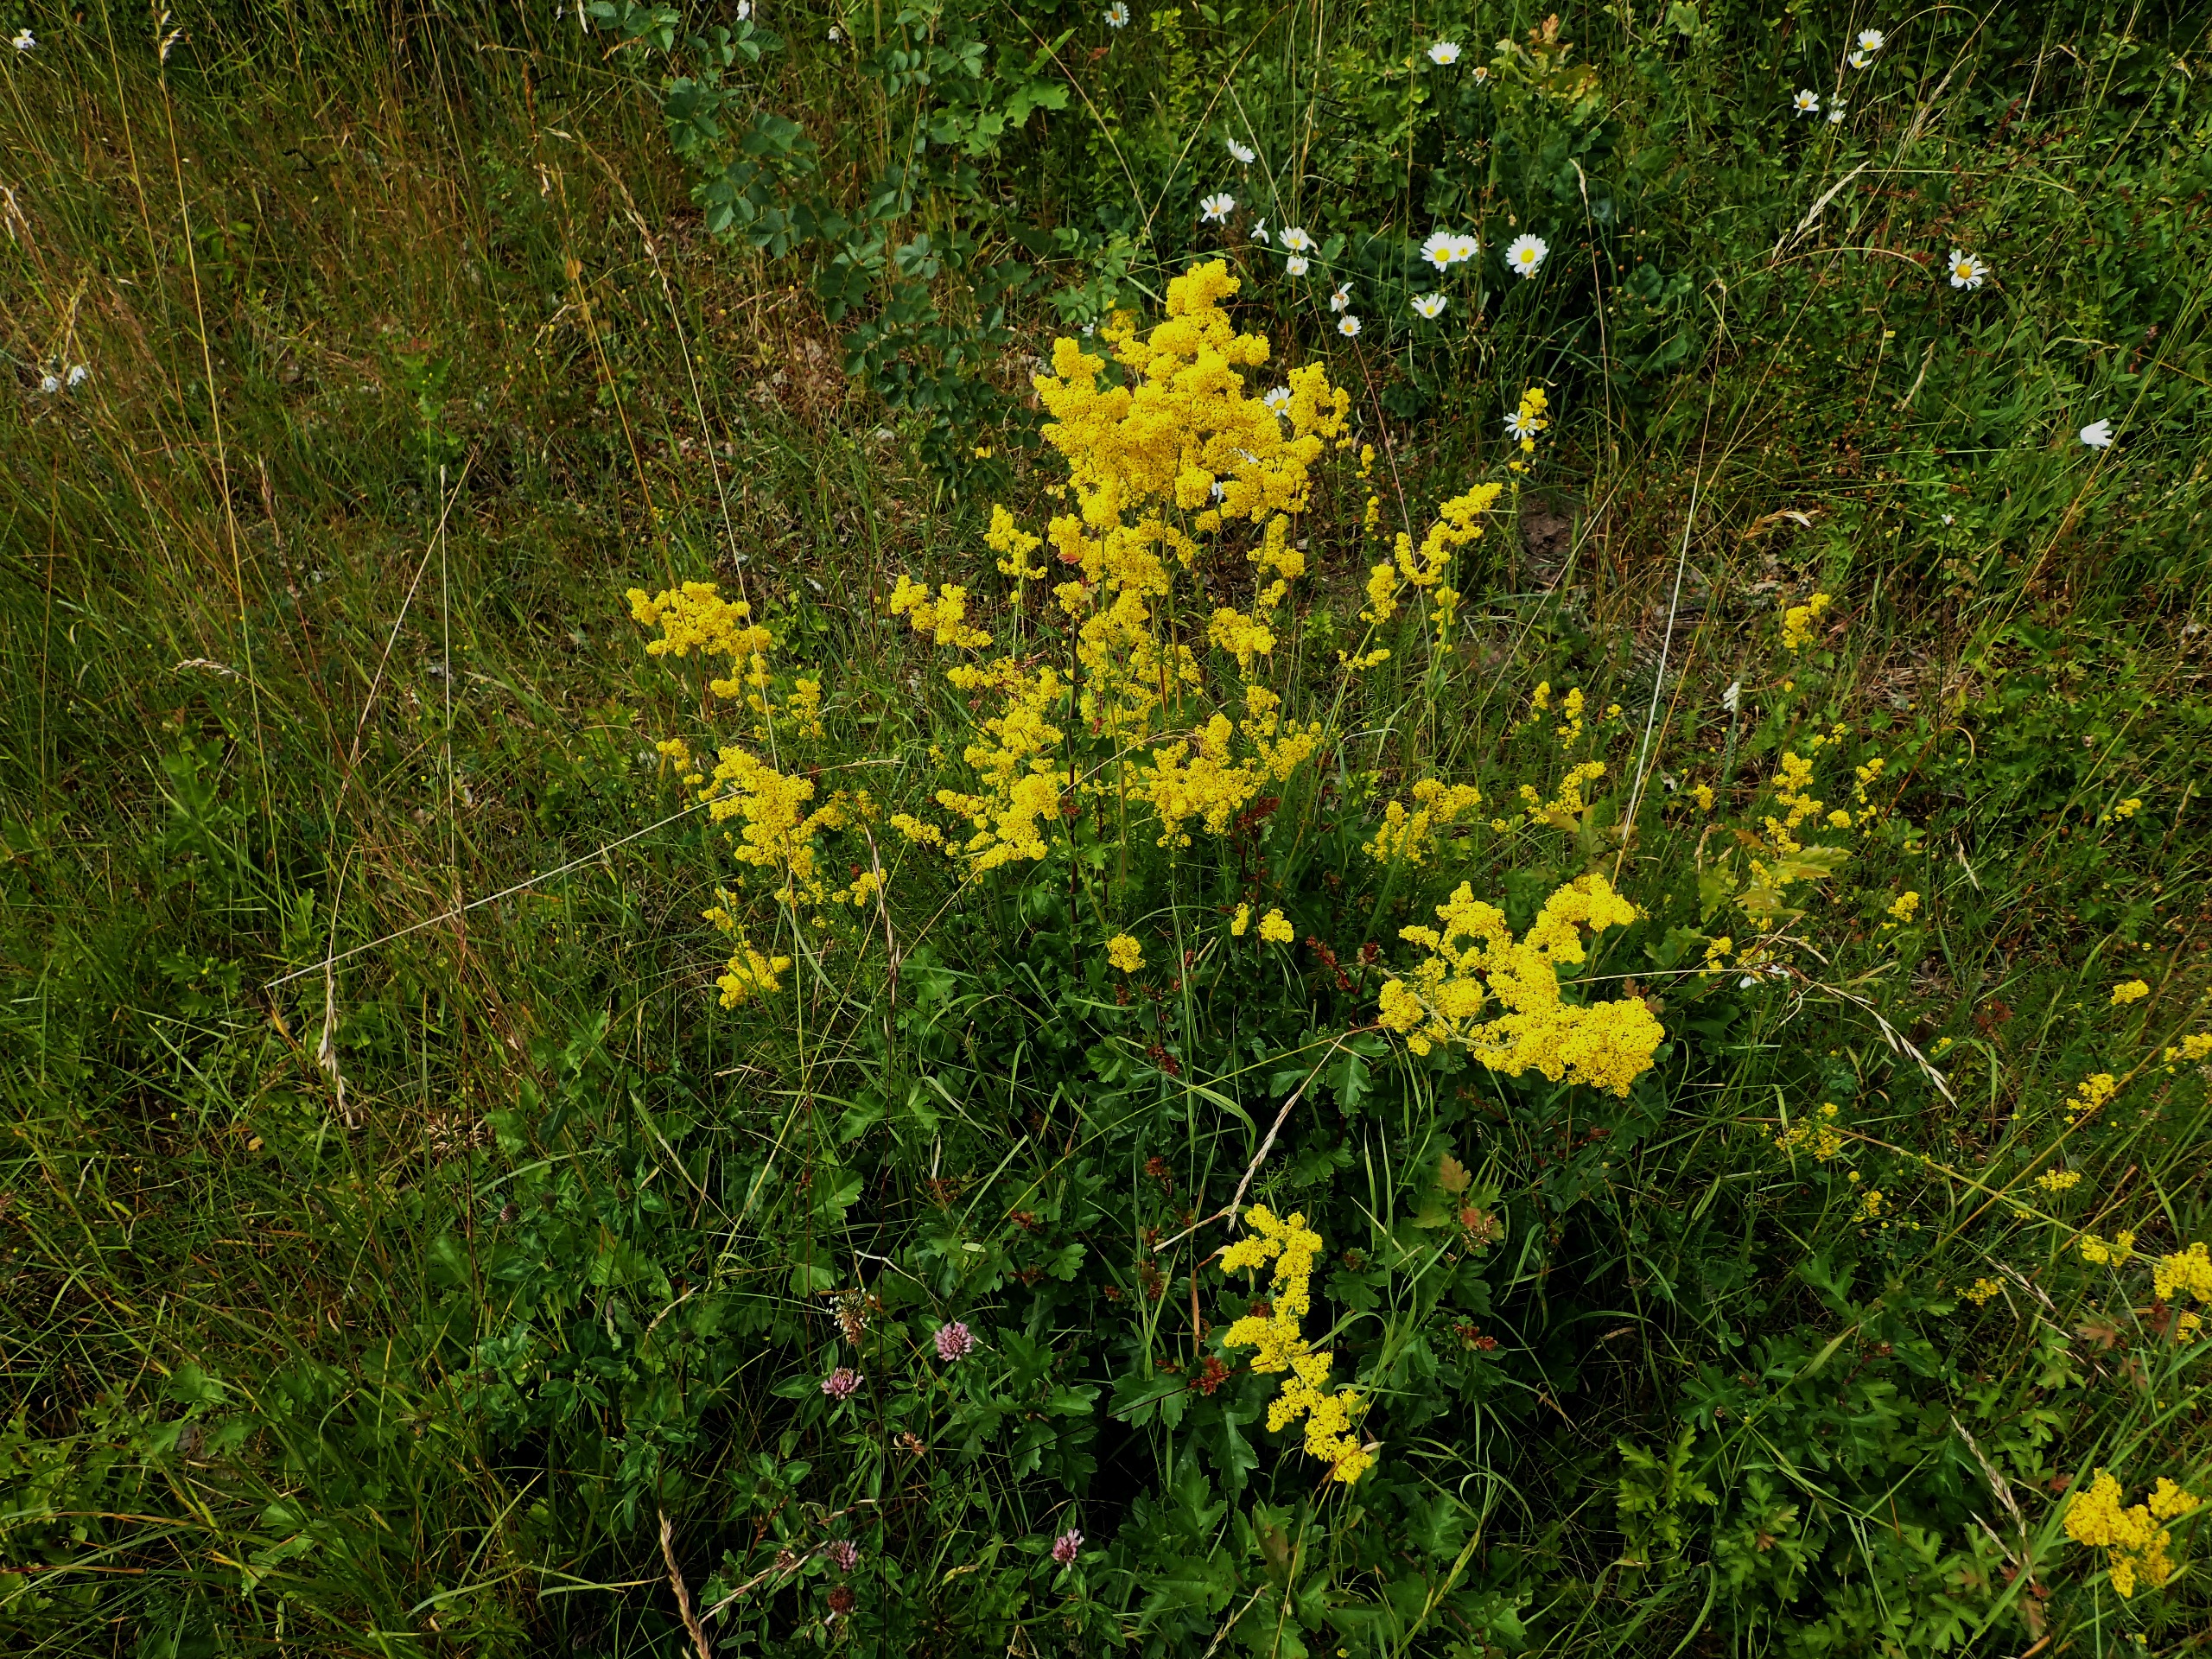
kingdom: Plantae
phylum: Tracheophyta
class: Magnoliopsida
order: Gentianales
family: Rubiaceae
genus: Galium
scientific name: Galium verum
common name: Gul snerre
